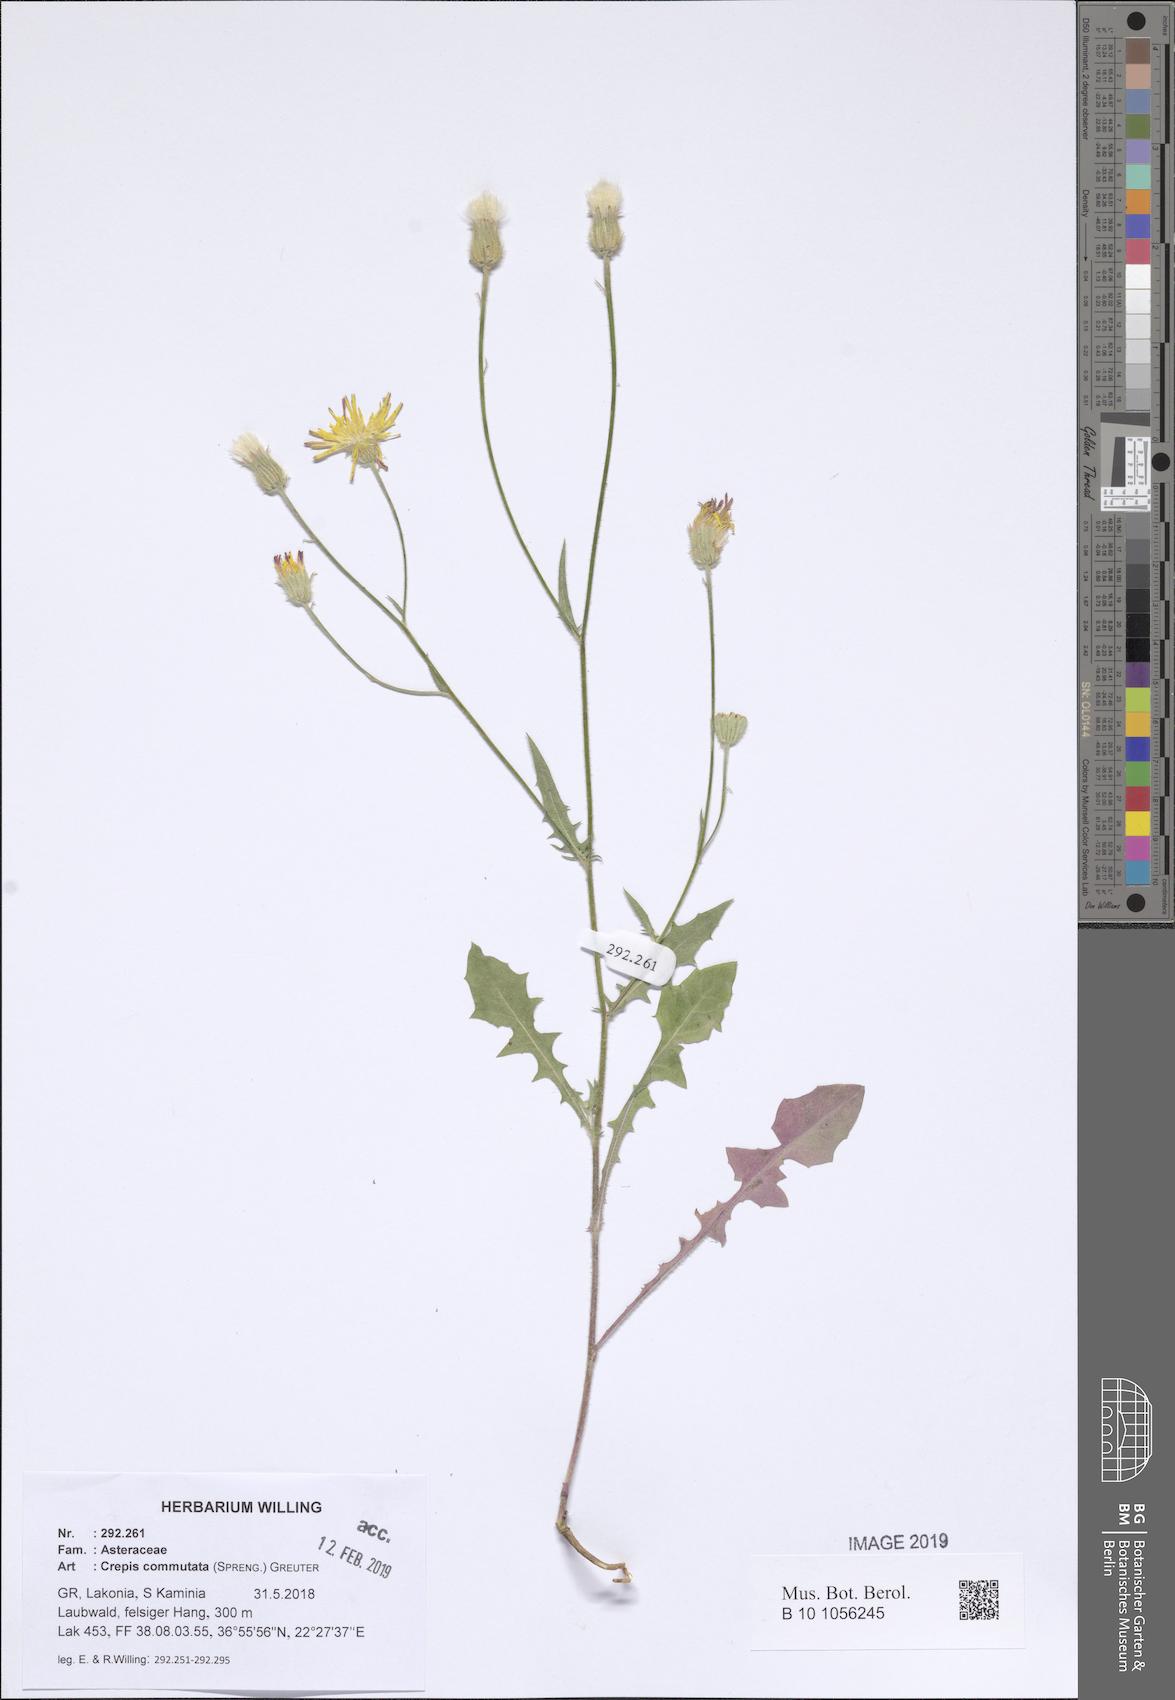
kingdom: Plantae
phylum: Tracheophyta
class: Magnoliopsida
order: Asterales
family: Asteraceae
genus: Crepis
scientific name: Crepis commutata
